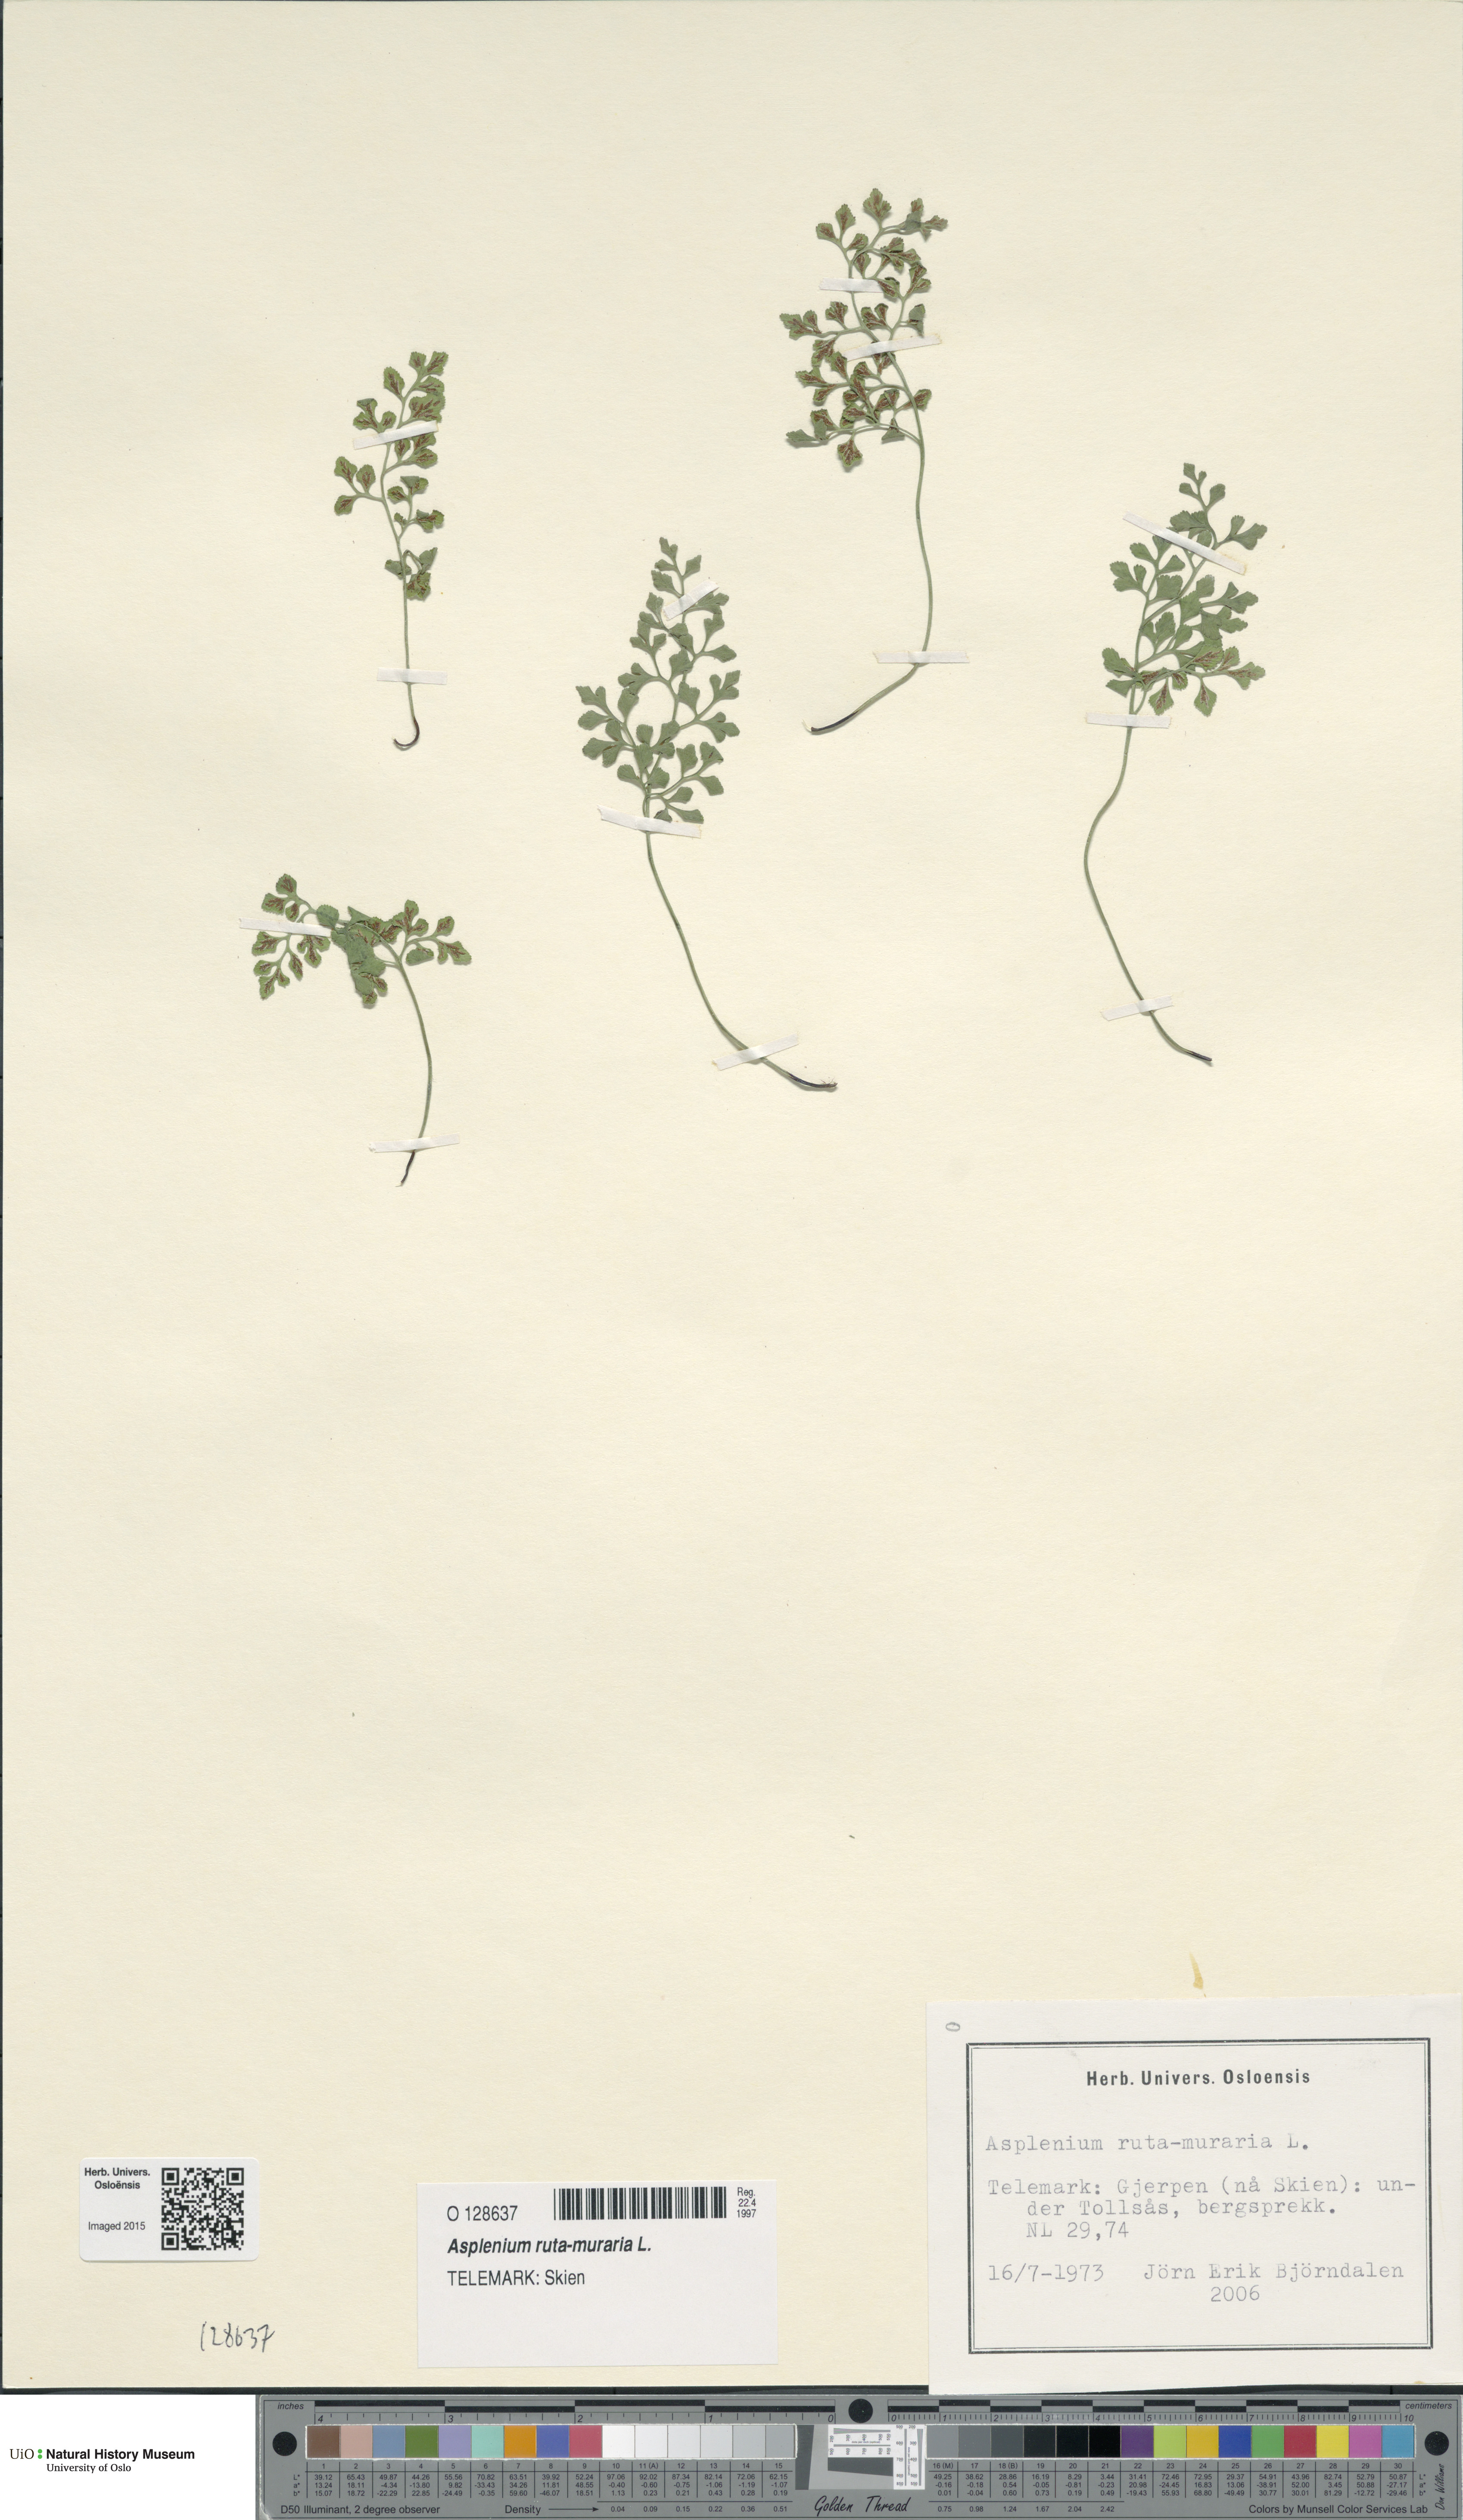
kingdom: Plantae
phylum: Tracheophyta
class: Polypodiopsida
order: Polypodiales
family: Aspleniaceae
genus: Asplenium
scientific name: Asplenium ruta-muraria
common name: Wall-rue
